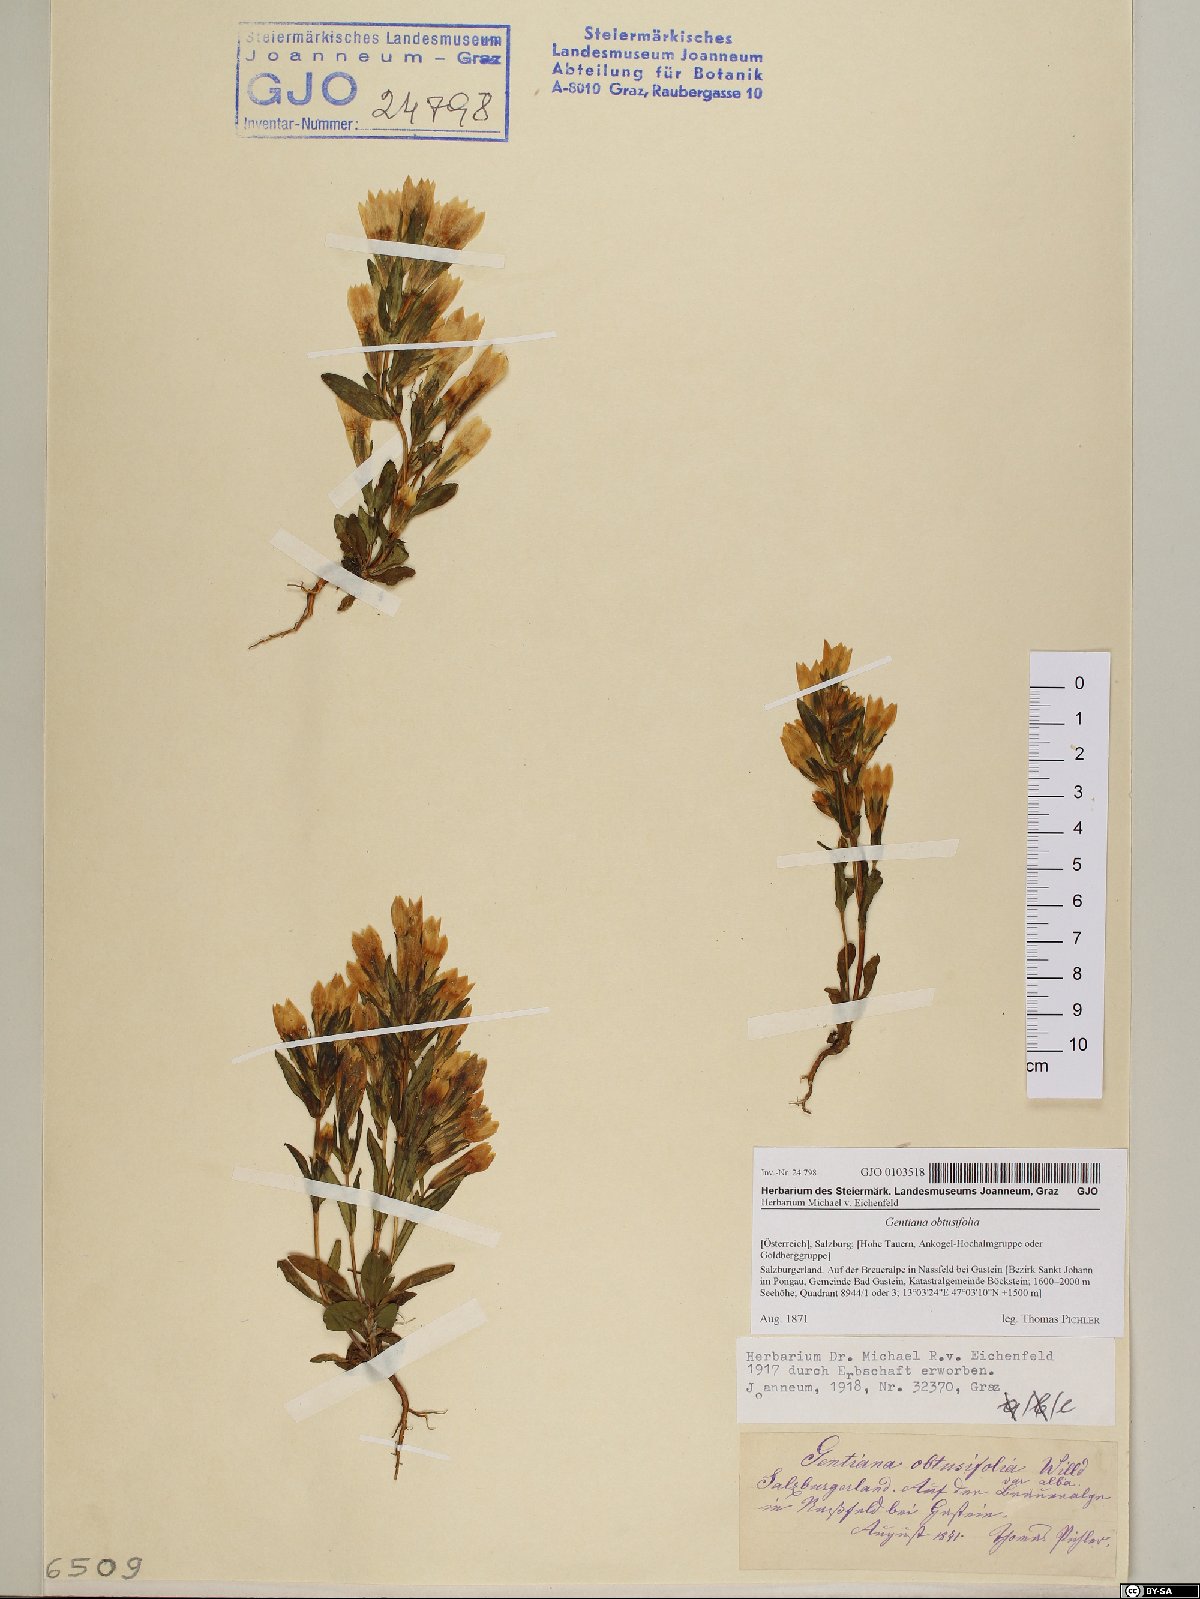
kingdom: Plantae
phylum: Tracheophyta
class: Magnoliopsida
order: Gentianales
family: Gentianaceae
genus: Gentianella
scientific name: Gentianella obtusifolia
